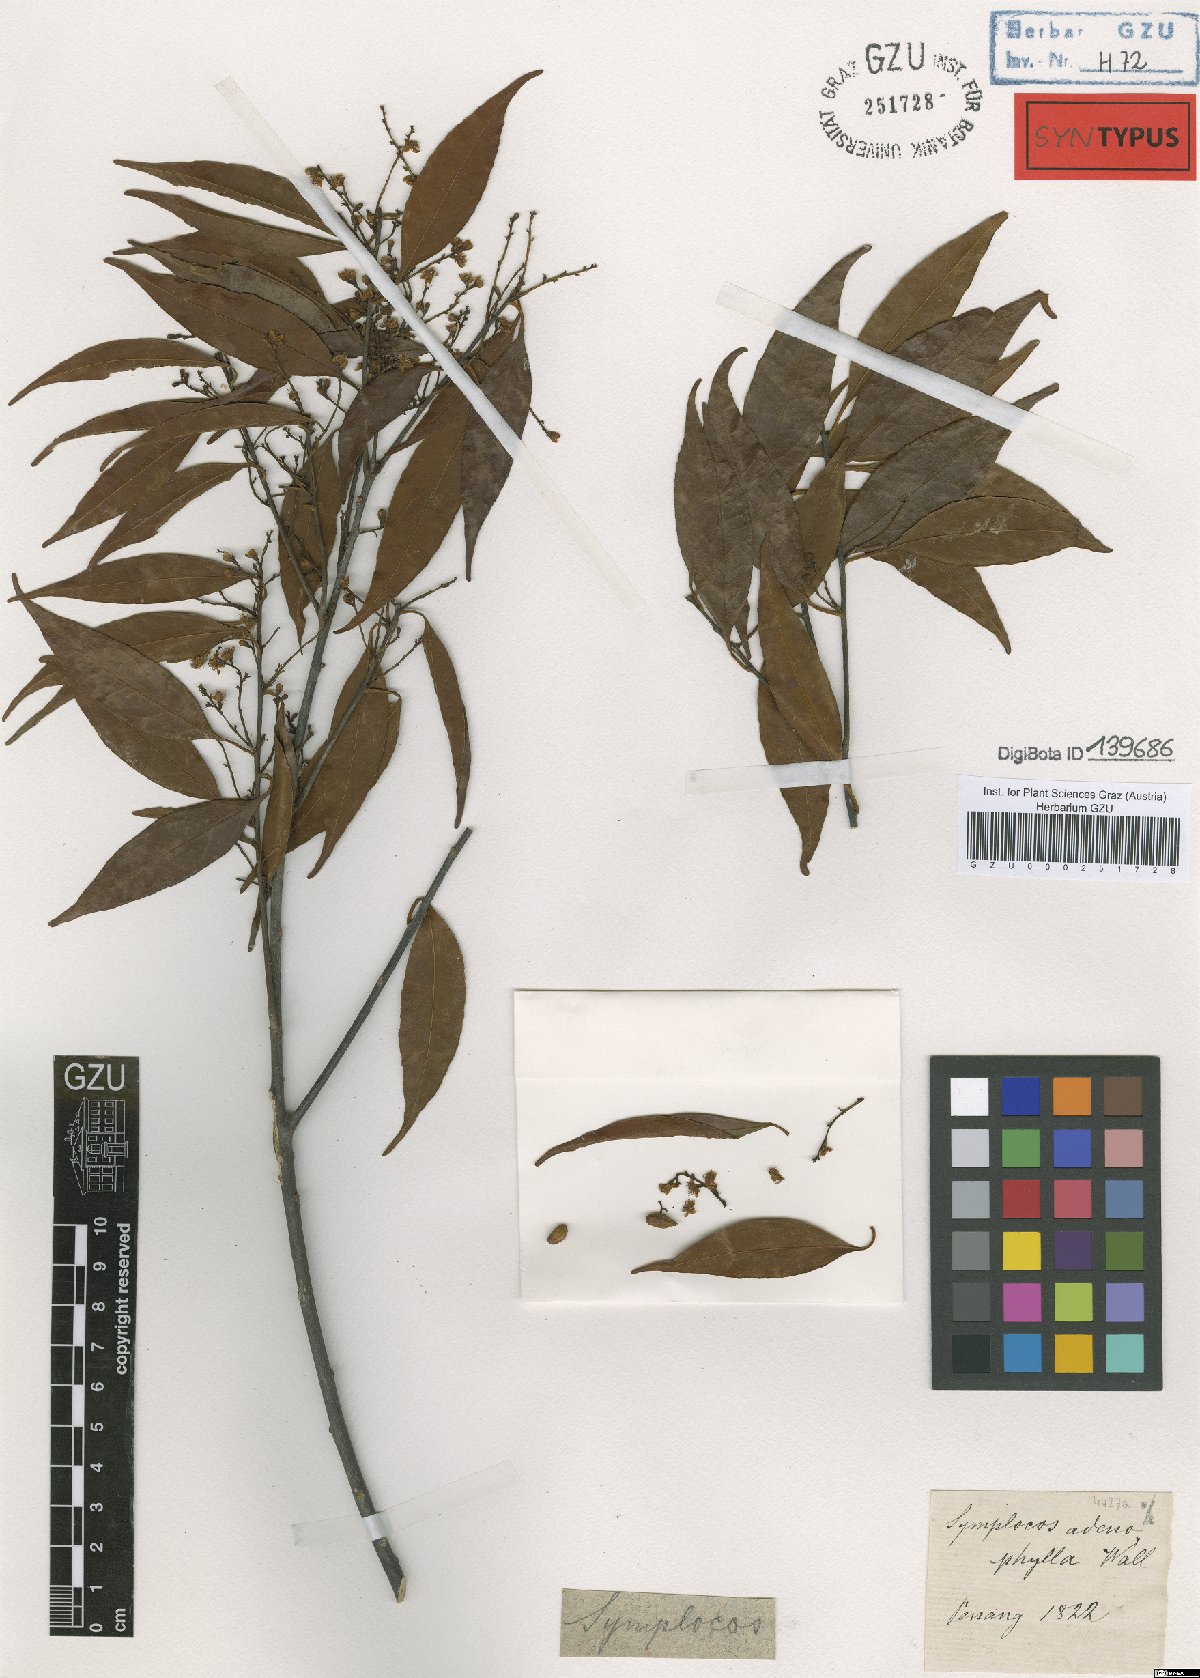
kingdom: Plantae
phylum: Tracheophyta
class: Magnoliopsida
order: Ericales
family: Symplocaceae
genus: Symplocos
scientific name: Symplocos adenophylla
